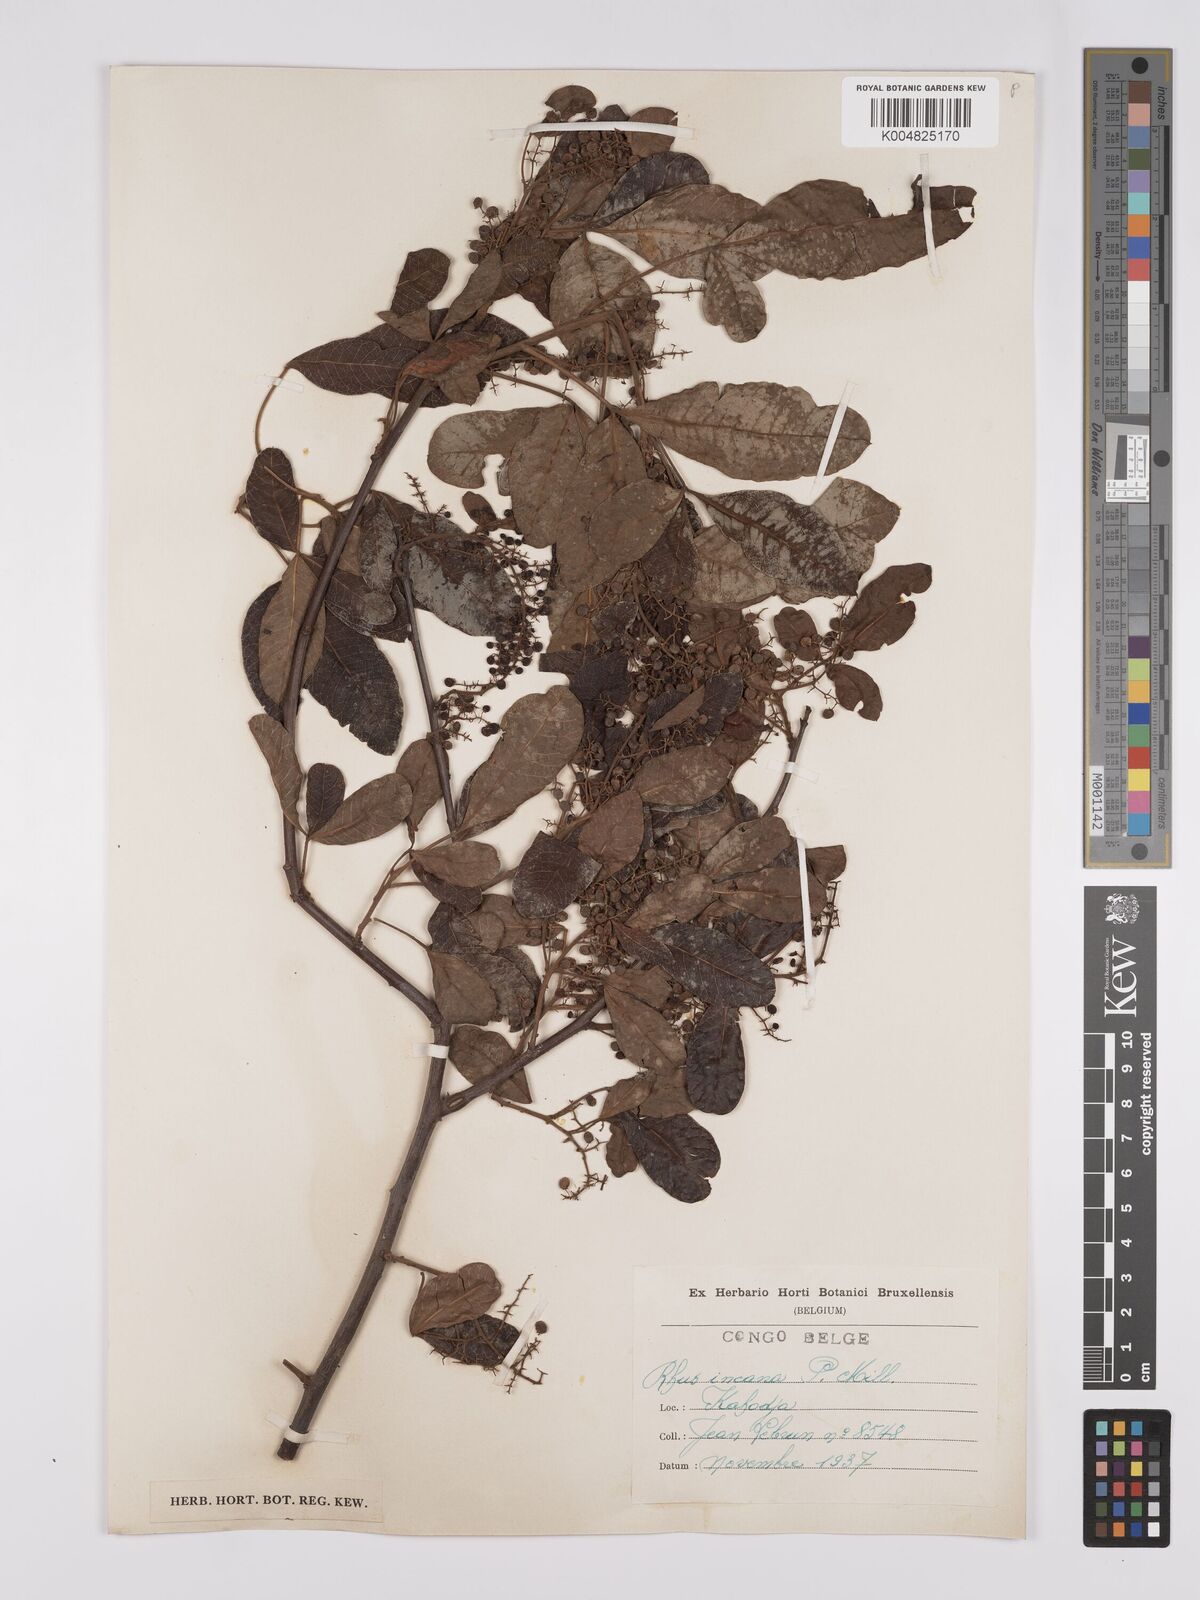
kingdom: Plantae
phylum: Tracheophyta
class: Magnoliopsida
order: Sapindales
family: Anacardiaceae
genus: Searsia
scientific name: Searsia longipes
